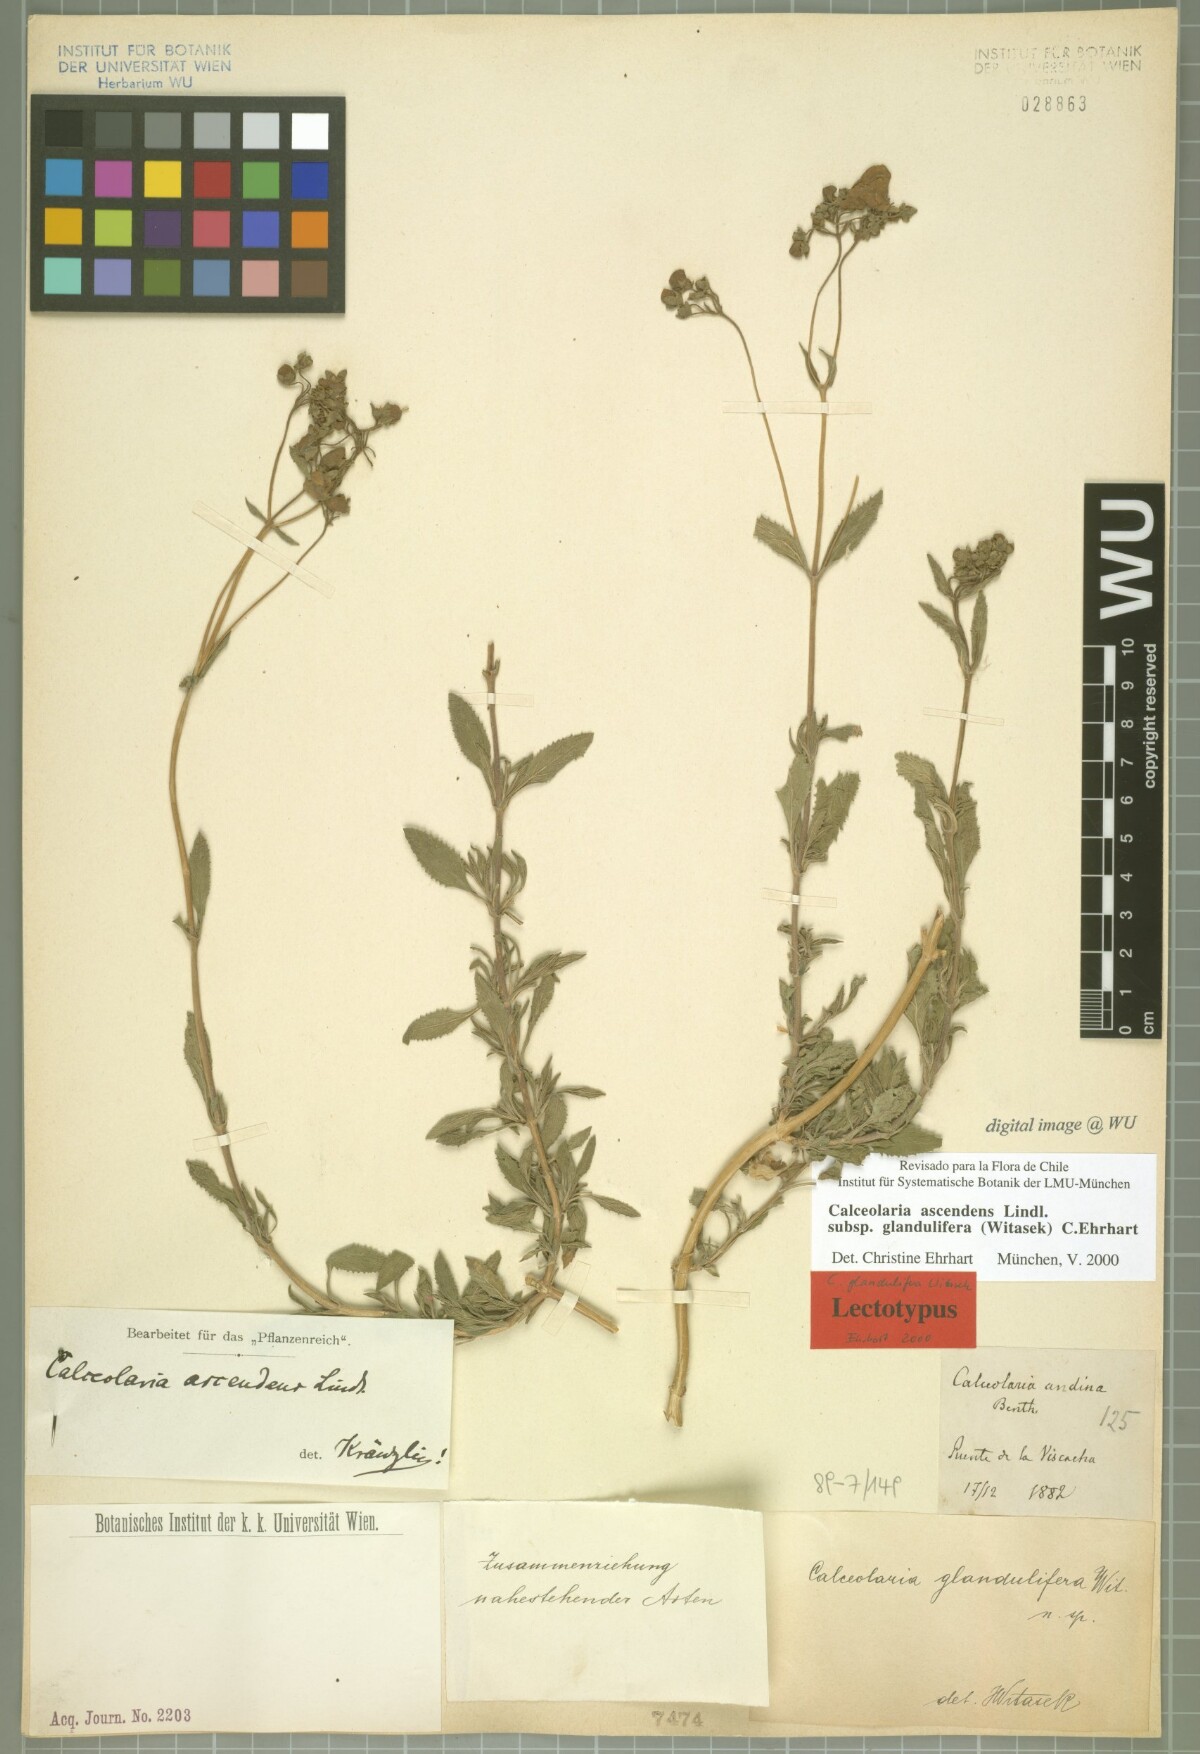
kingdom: Plantae
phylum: Tracheophyta
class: Magnoliopsida
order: Lamiales
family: Calceolariaceae
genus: Calceolaria
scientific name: Calceolaria ascendens
